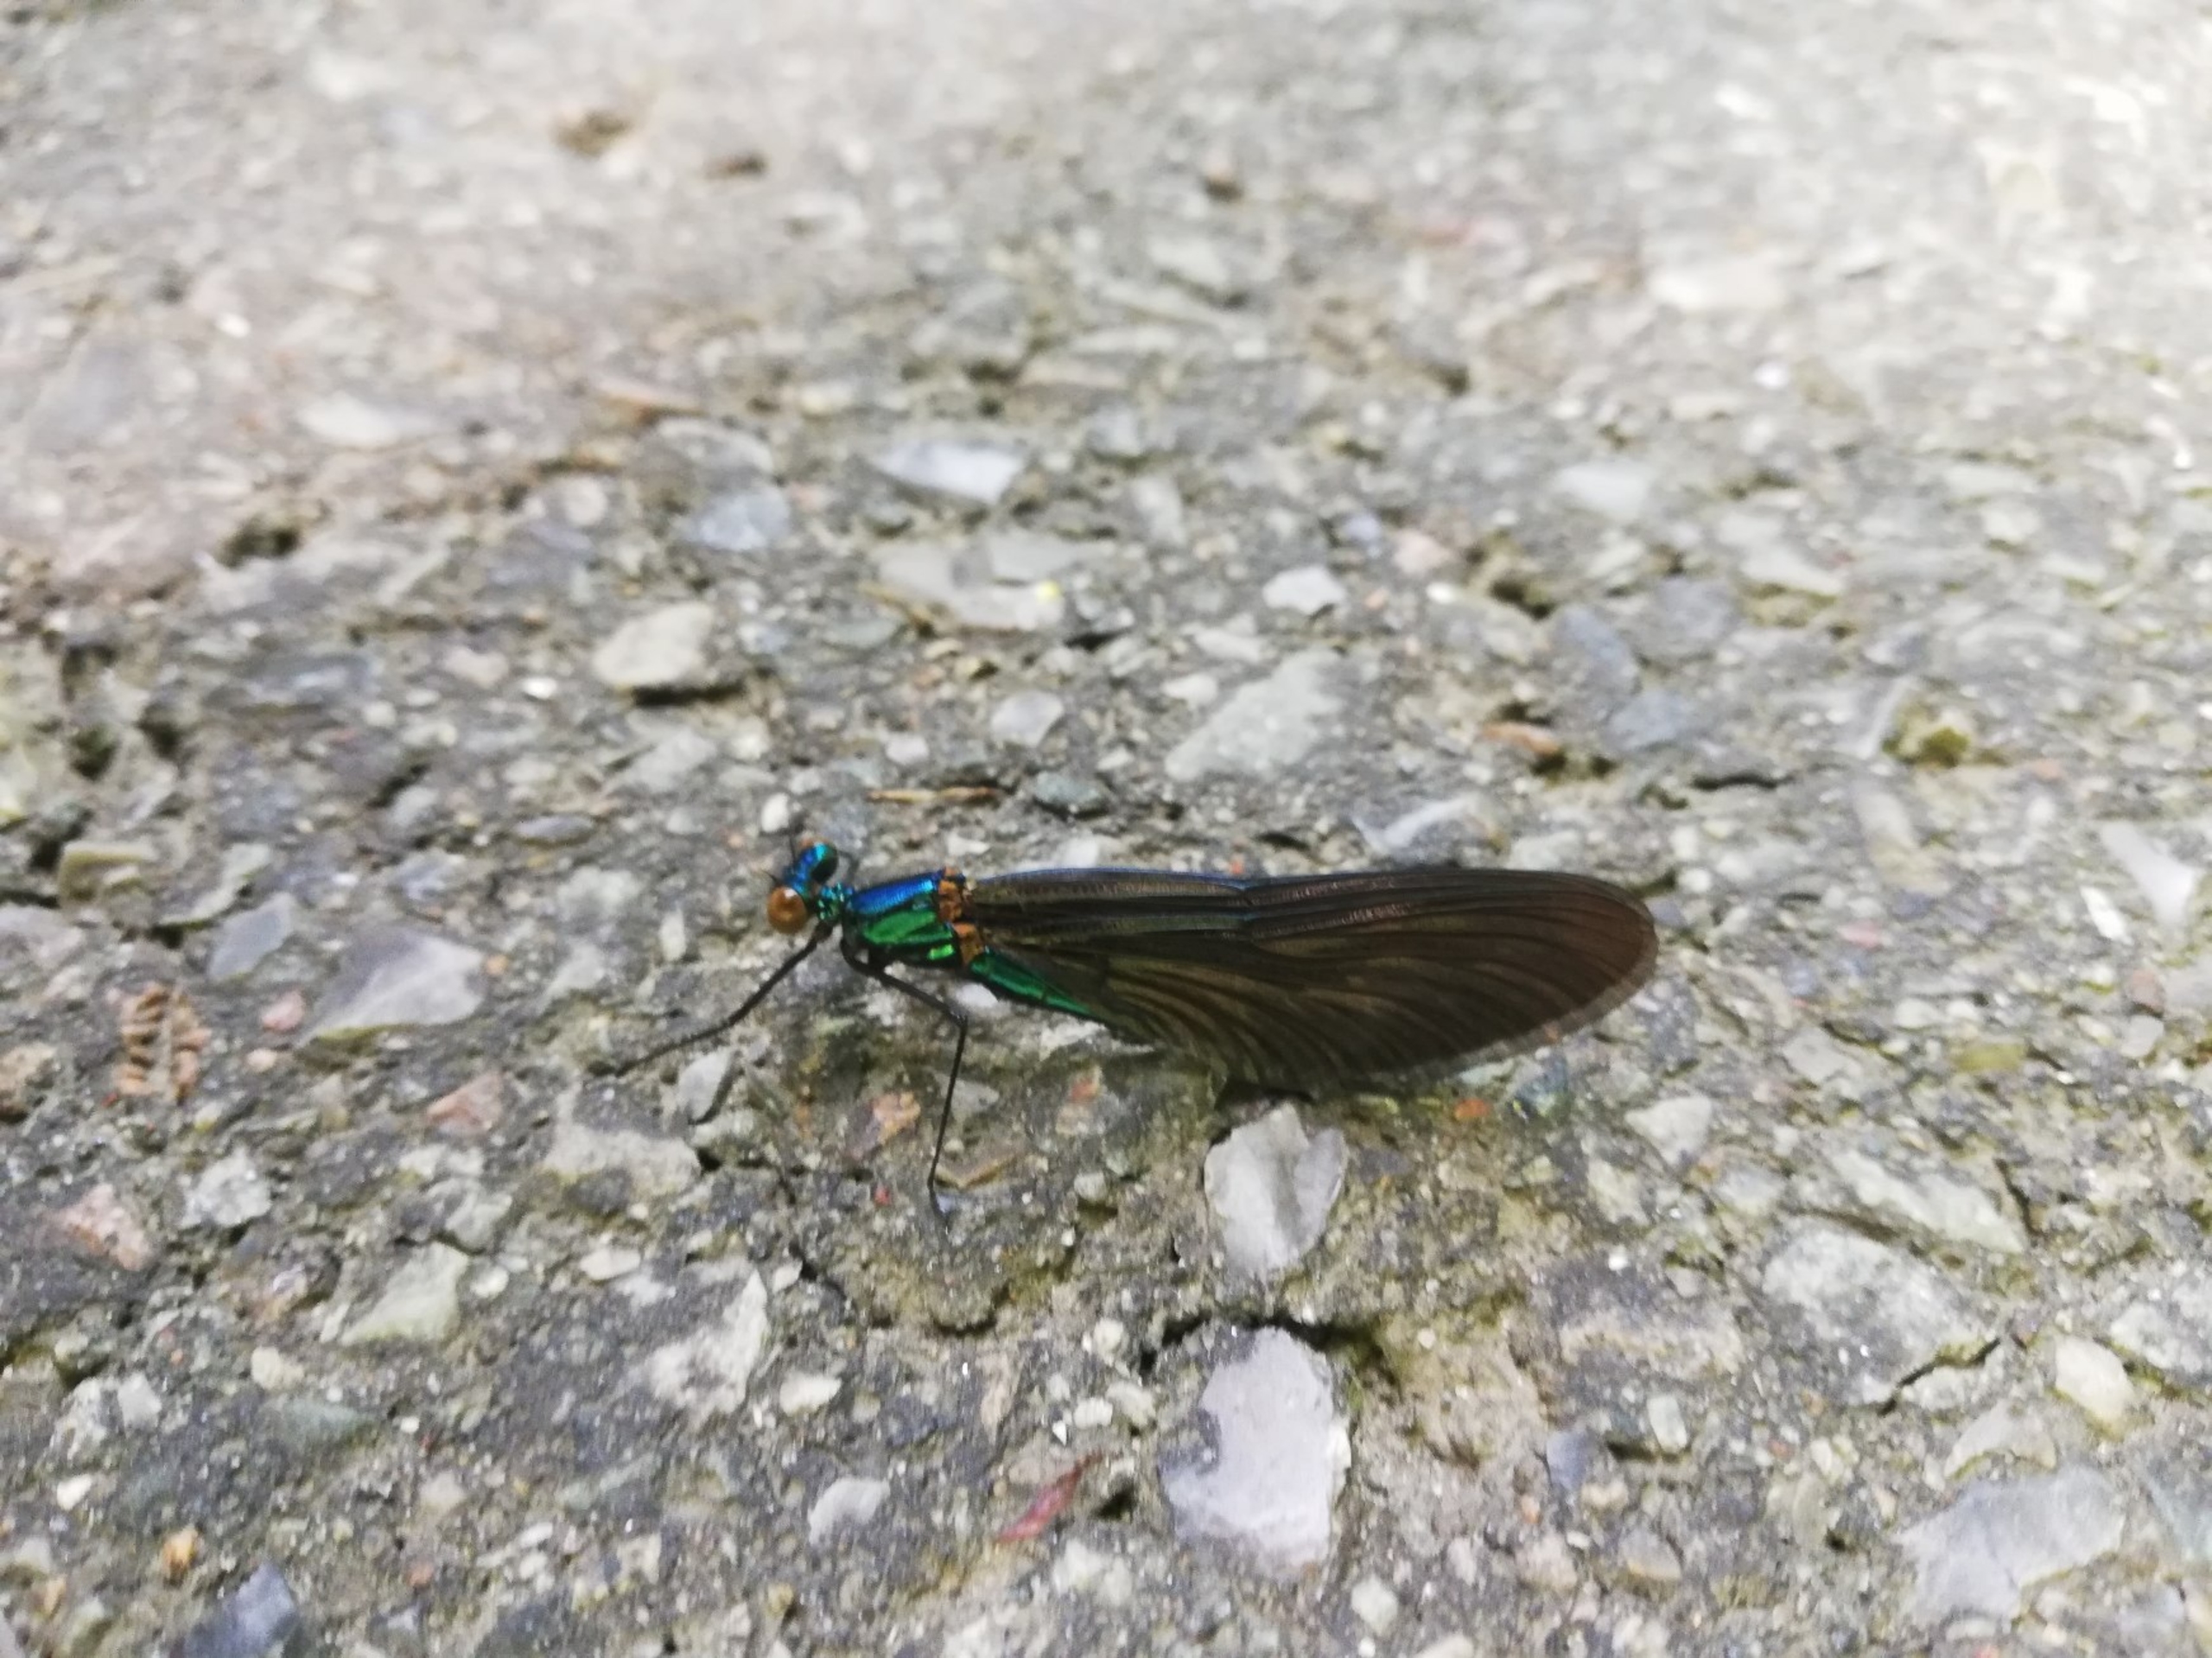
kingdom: Animalia
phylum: Arthropoda
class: Insecta
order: Odonata
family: Calopterygidae
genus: Calopteryx
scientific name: Calopteryx virgo
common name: Blåvinget pragtvandnymfe
